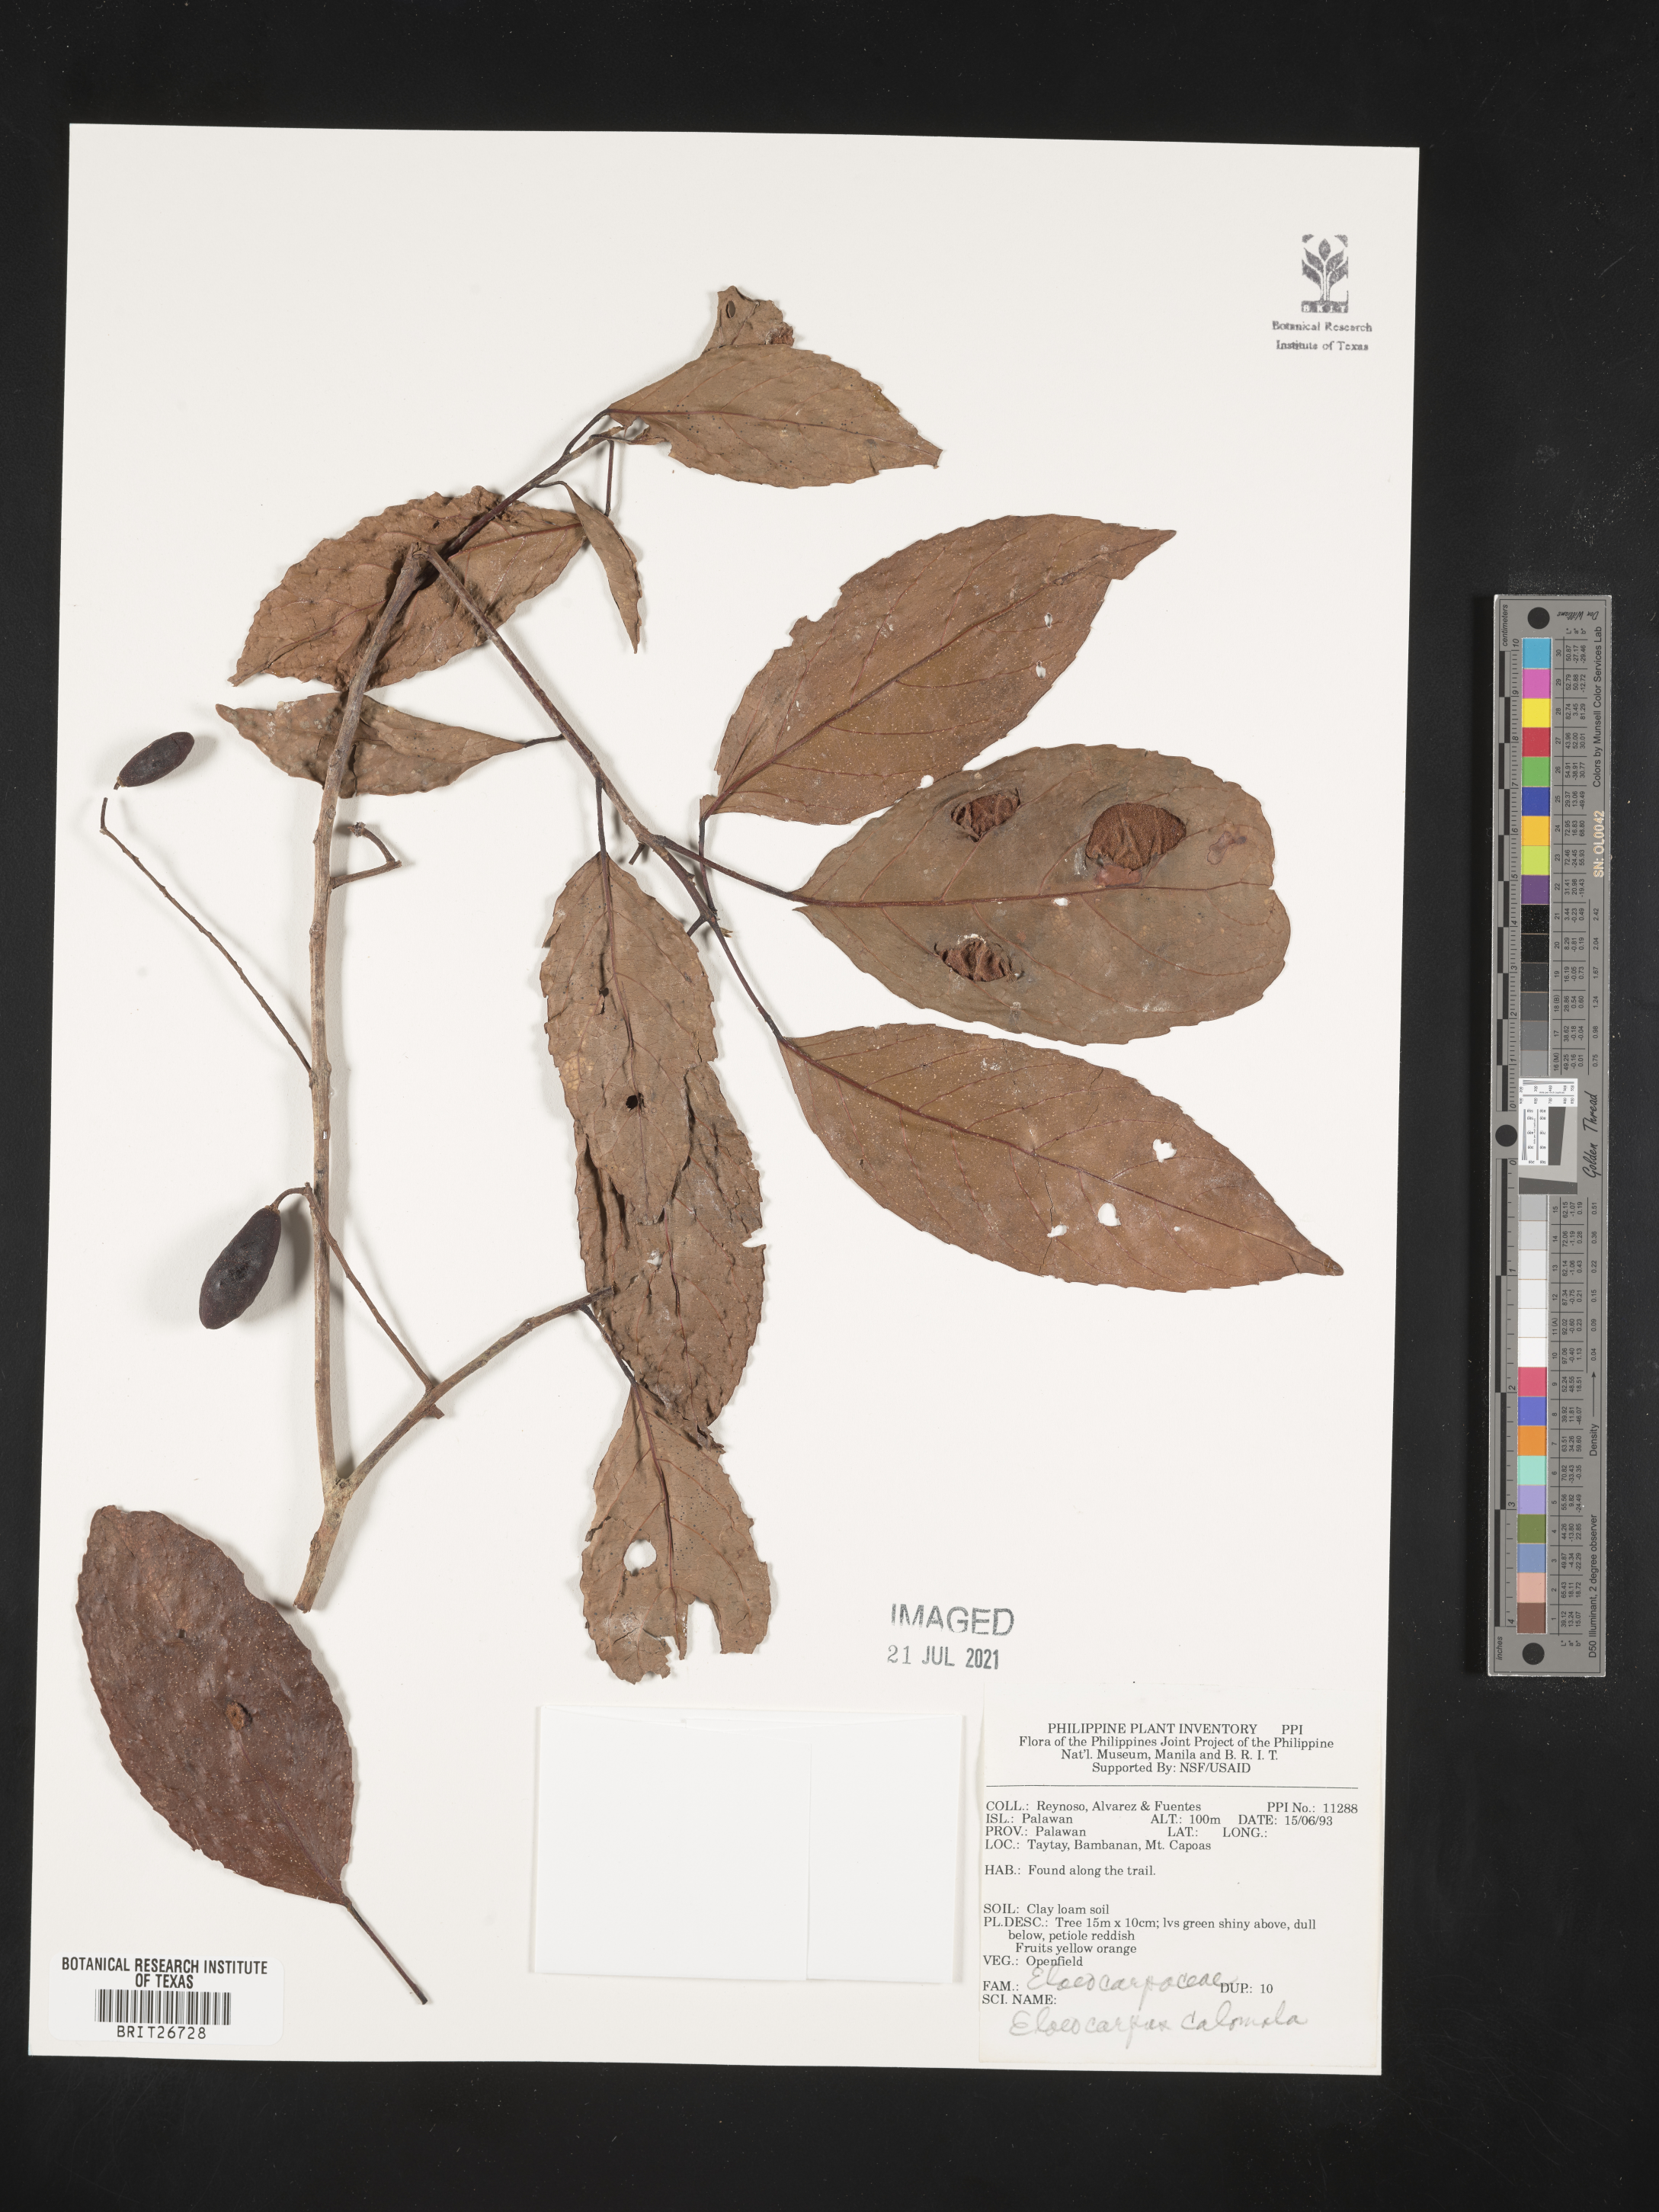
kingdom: Plantae
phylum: Tracheophyta
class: Magnoliopsida
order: Oxalidales
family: Elaeocarpaceae
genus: Elaeocarpus
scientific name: Elaeocarpus calomala
